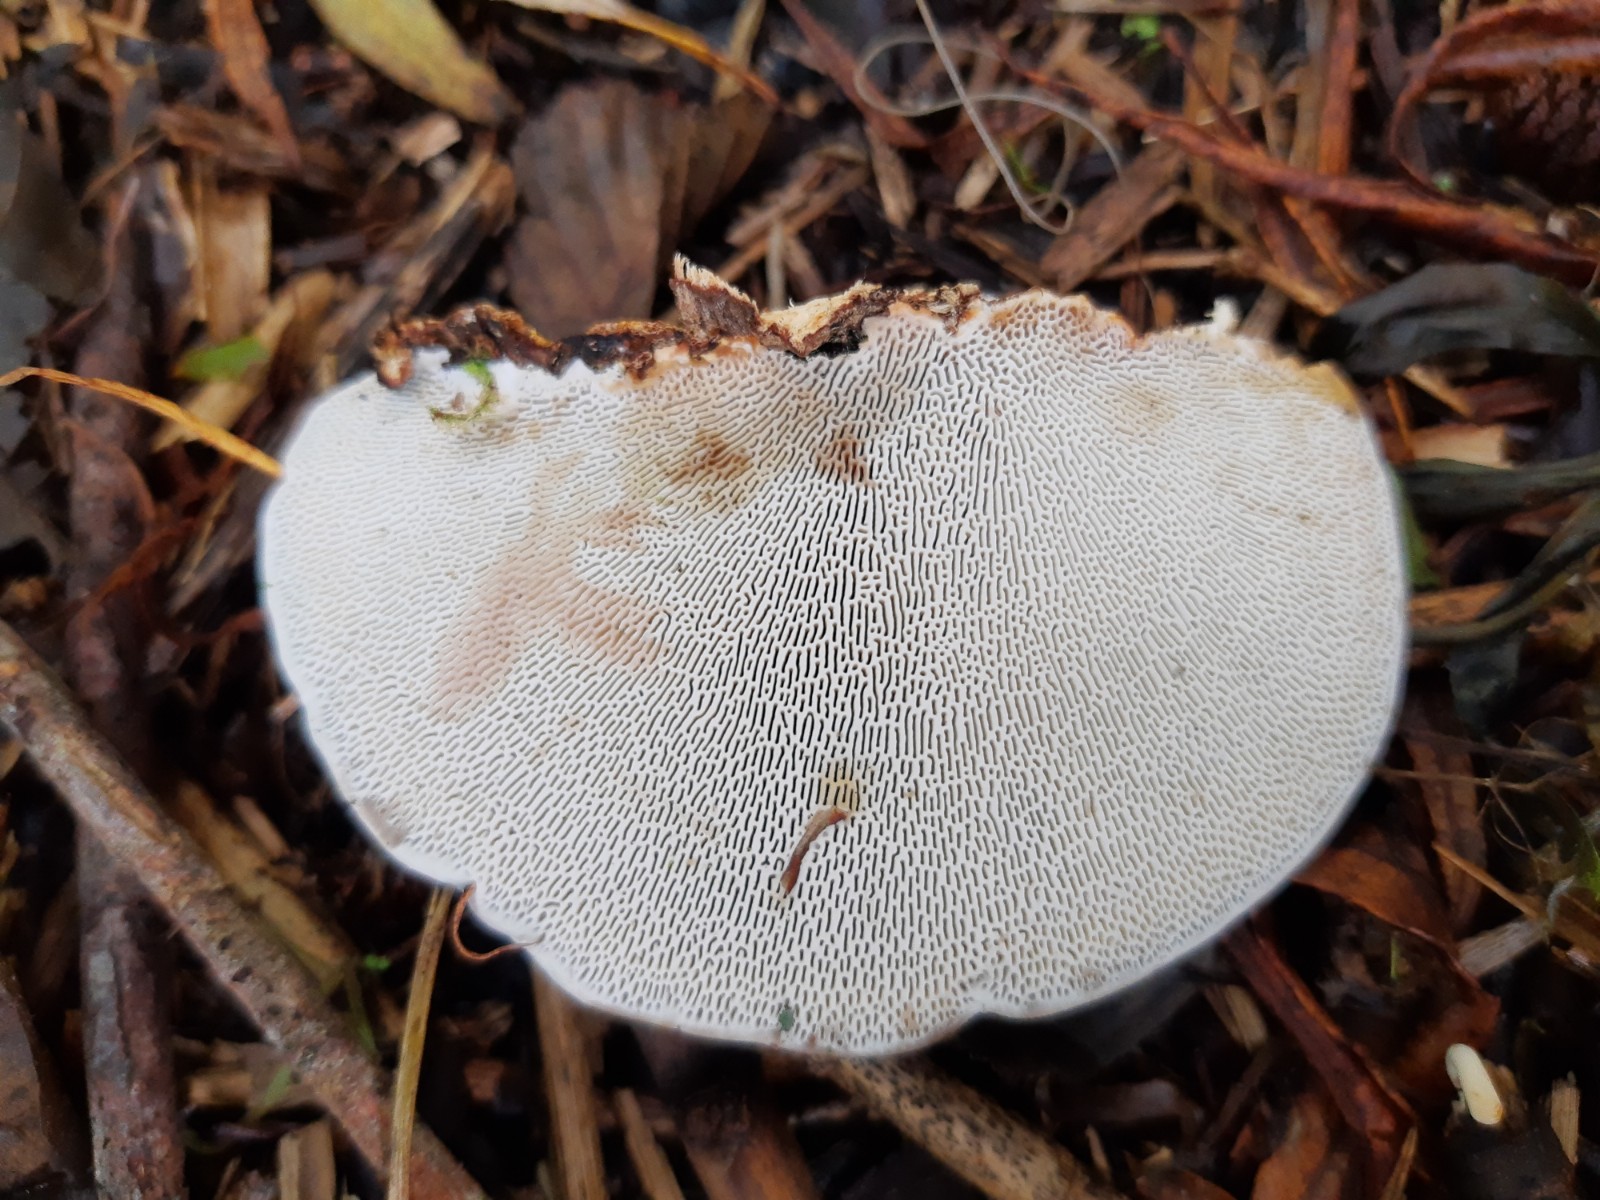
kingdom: Fungi
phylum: Basidiomycota
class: Agaricomycetes
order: Polyporales
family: Polyporaceae
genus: Daedaleopsis
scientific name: Daedaleopsis confragosa
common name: rødmende læderporesvamp
